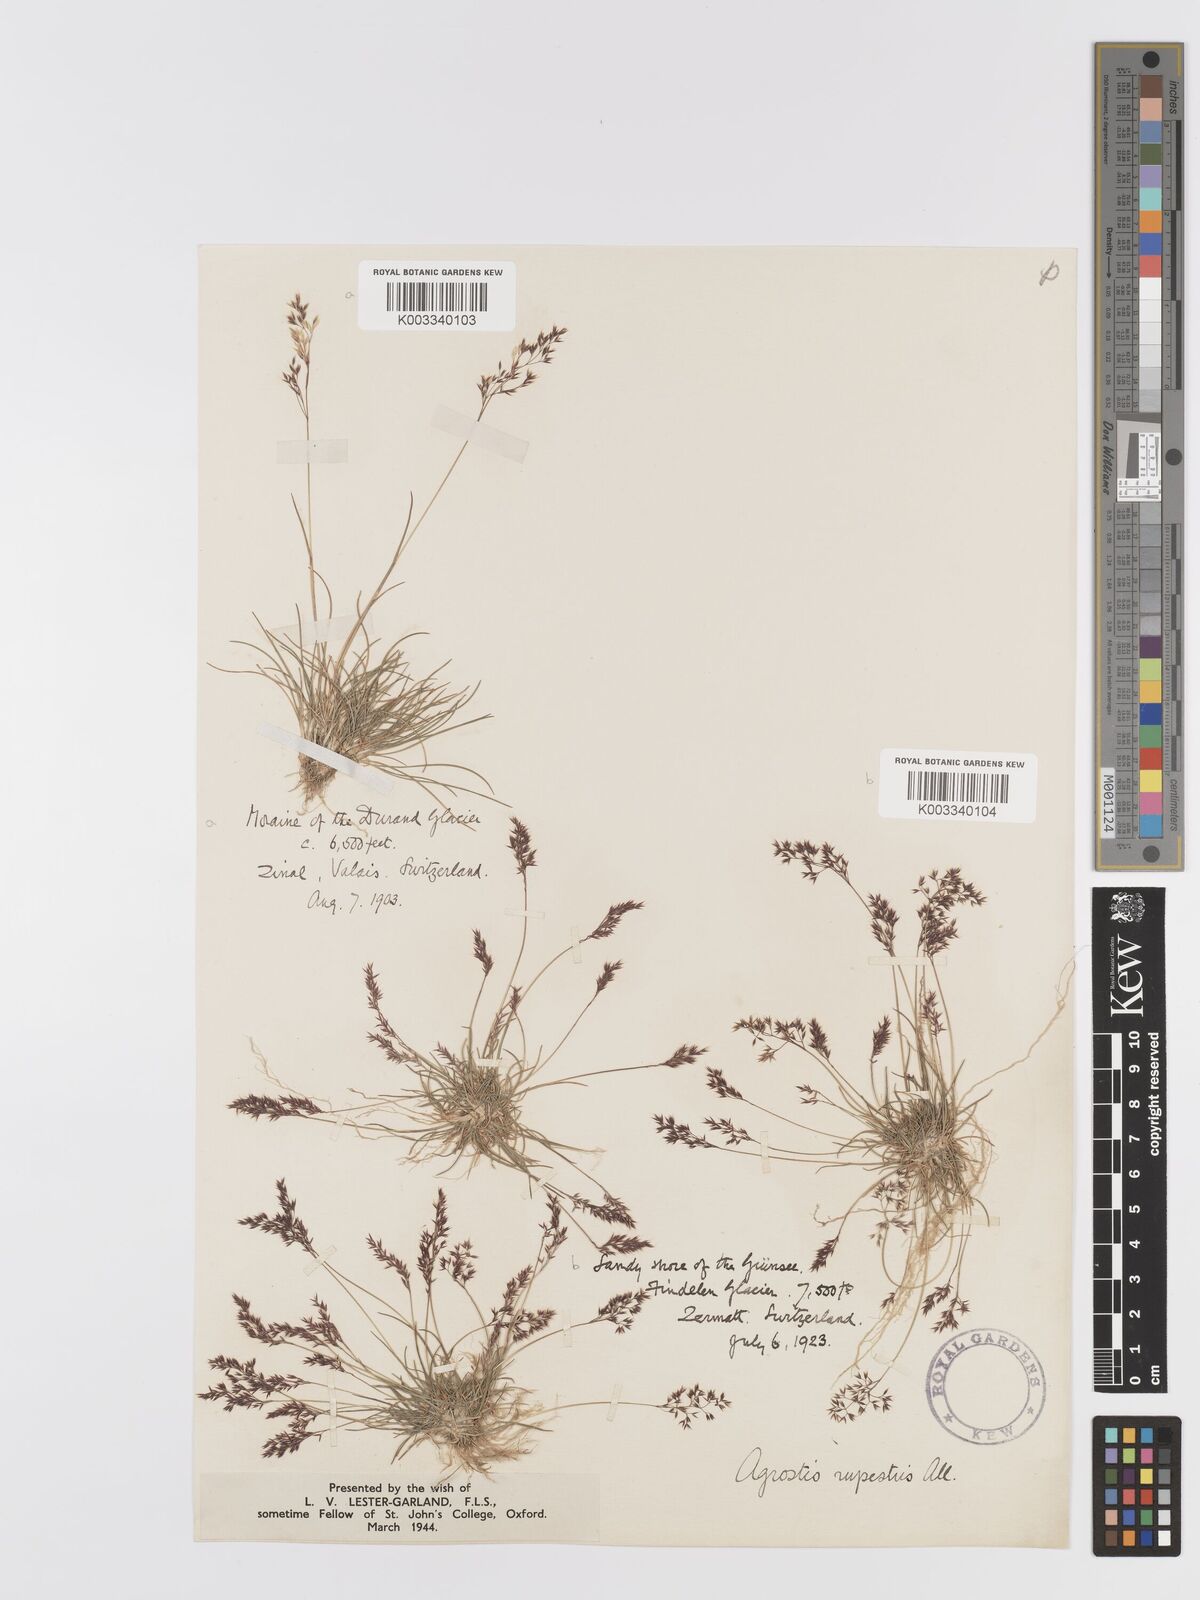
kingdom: Plantae
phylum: Tracheophyta
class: Liliopsida
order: Poales
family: Poaceae
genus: Agrostis
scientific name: Agrostis rupestris
